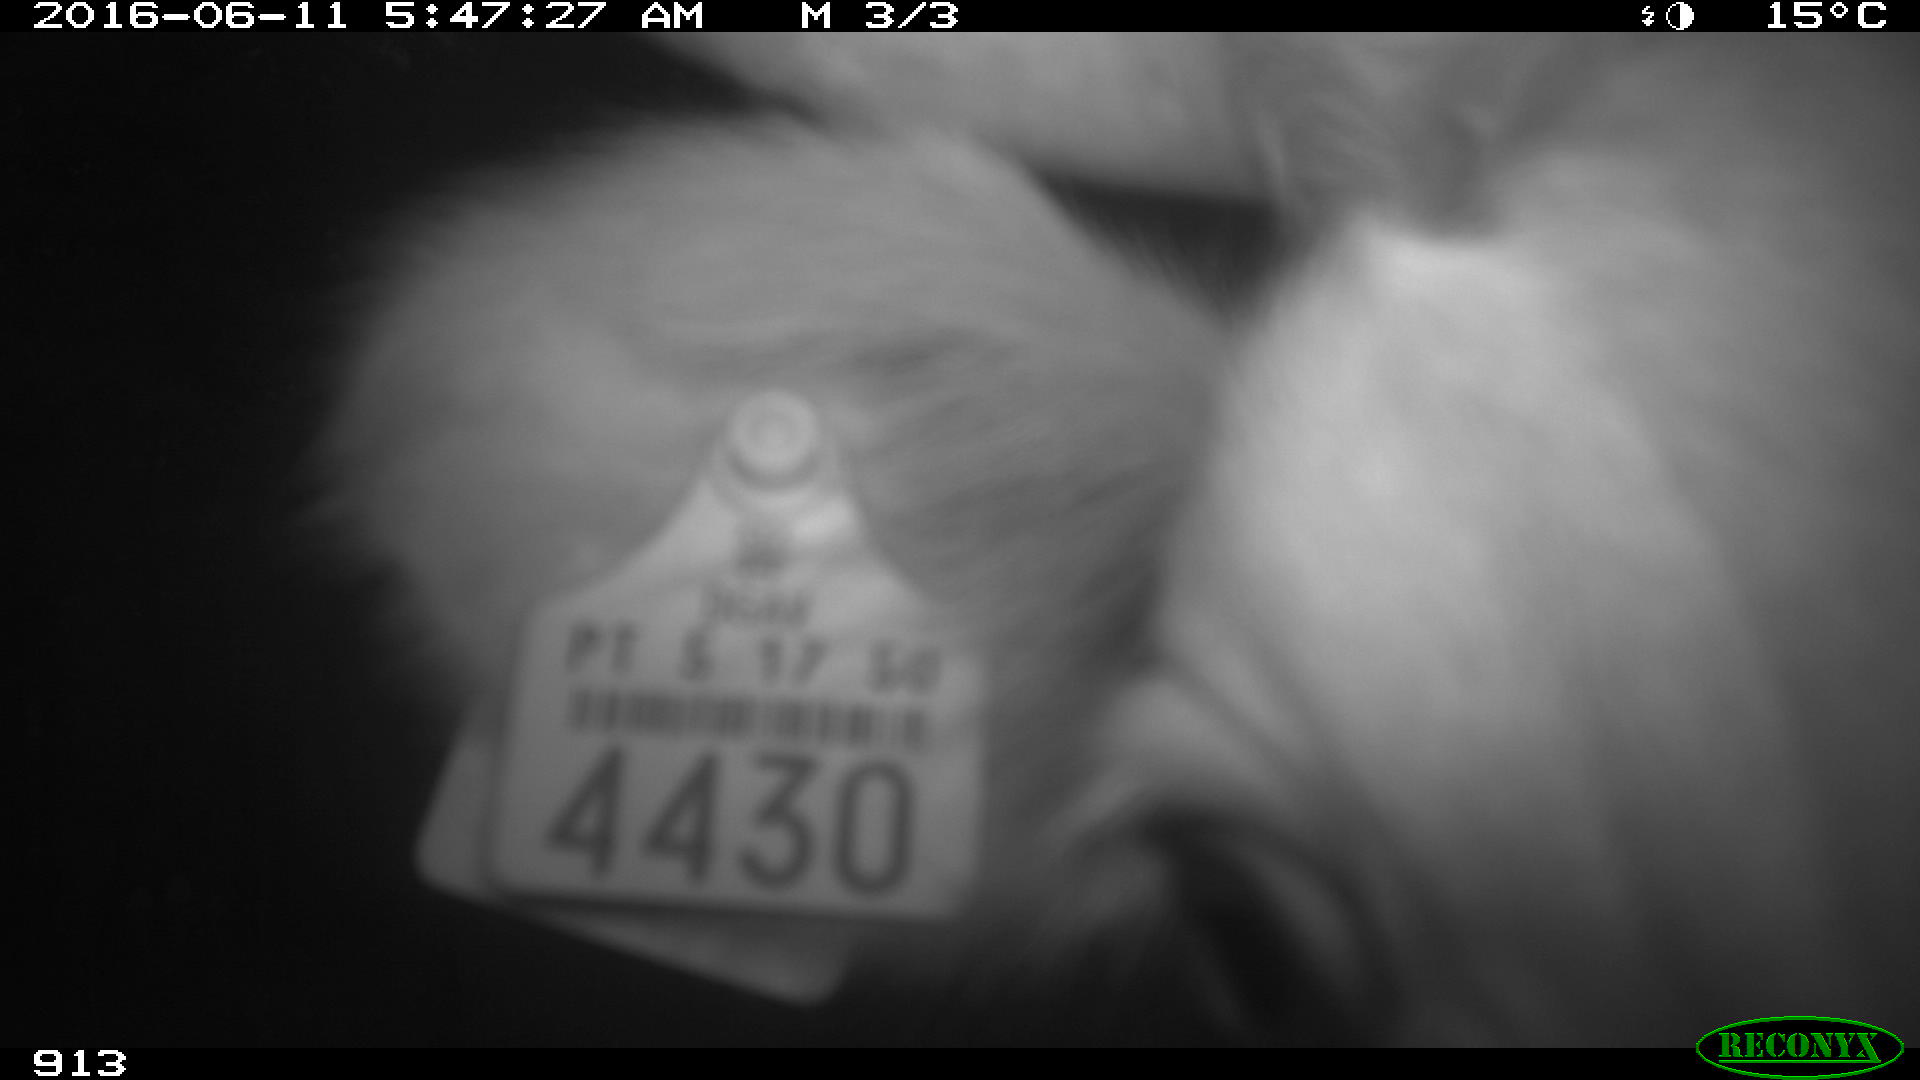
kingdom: Animalia
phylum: Chordata
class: Mammalia
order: Artiodactyla
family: Bovidae
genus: Bos
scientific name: Bos taurus
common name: Domesticated cattle
